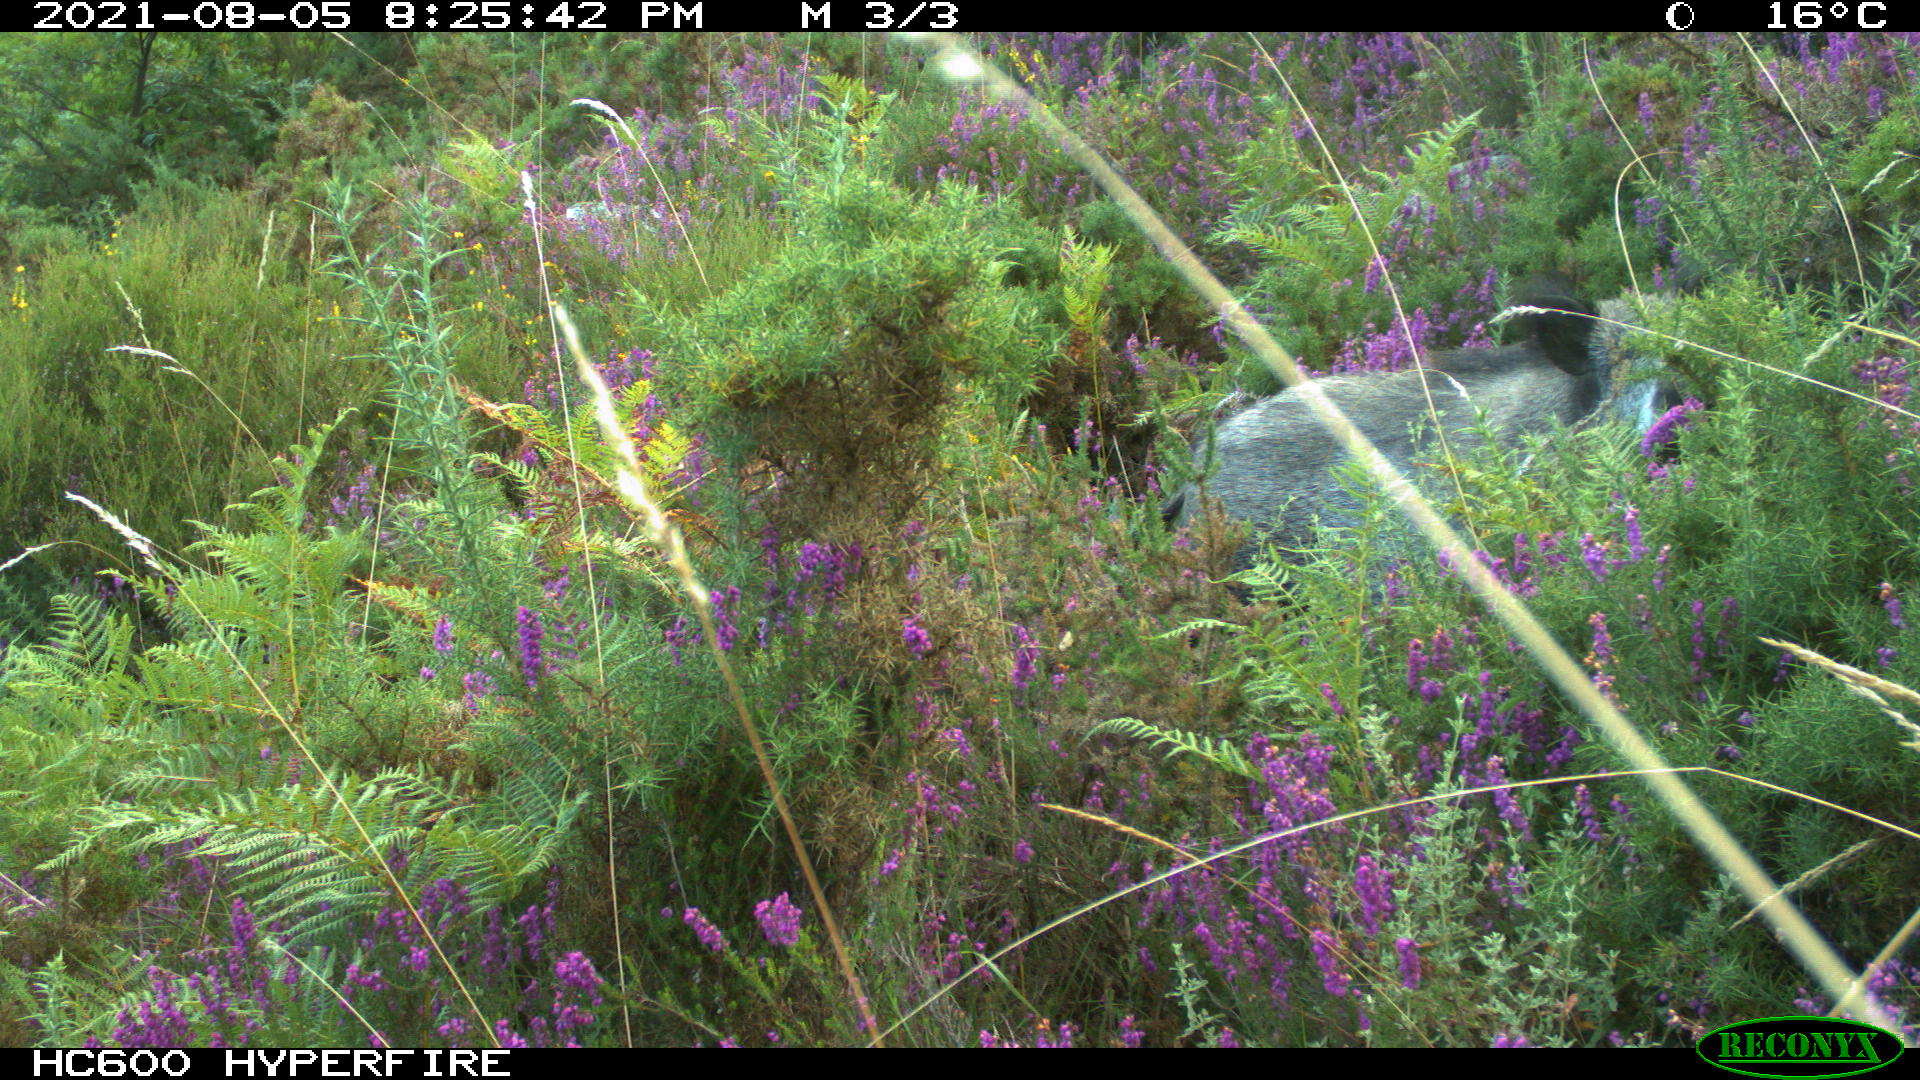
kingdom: Animalia
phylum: Chordata
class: Mammalia
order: Artiodactyla
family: Suidae
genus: Sus
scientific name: Sus scrofa
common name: Wild boar
